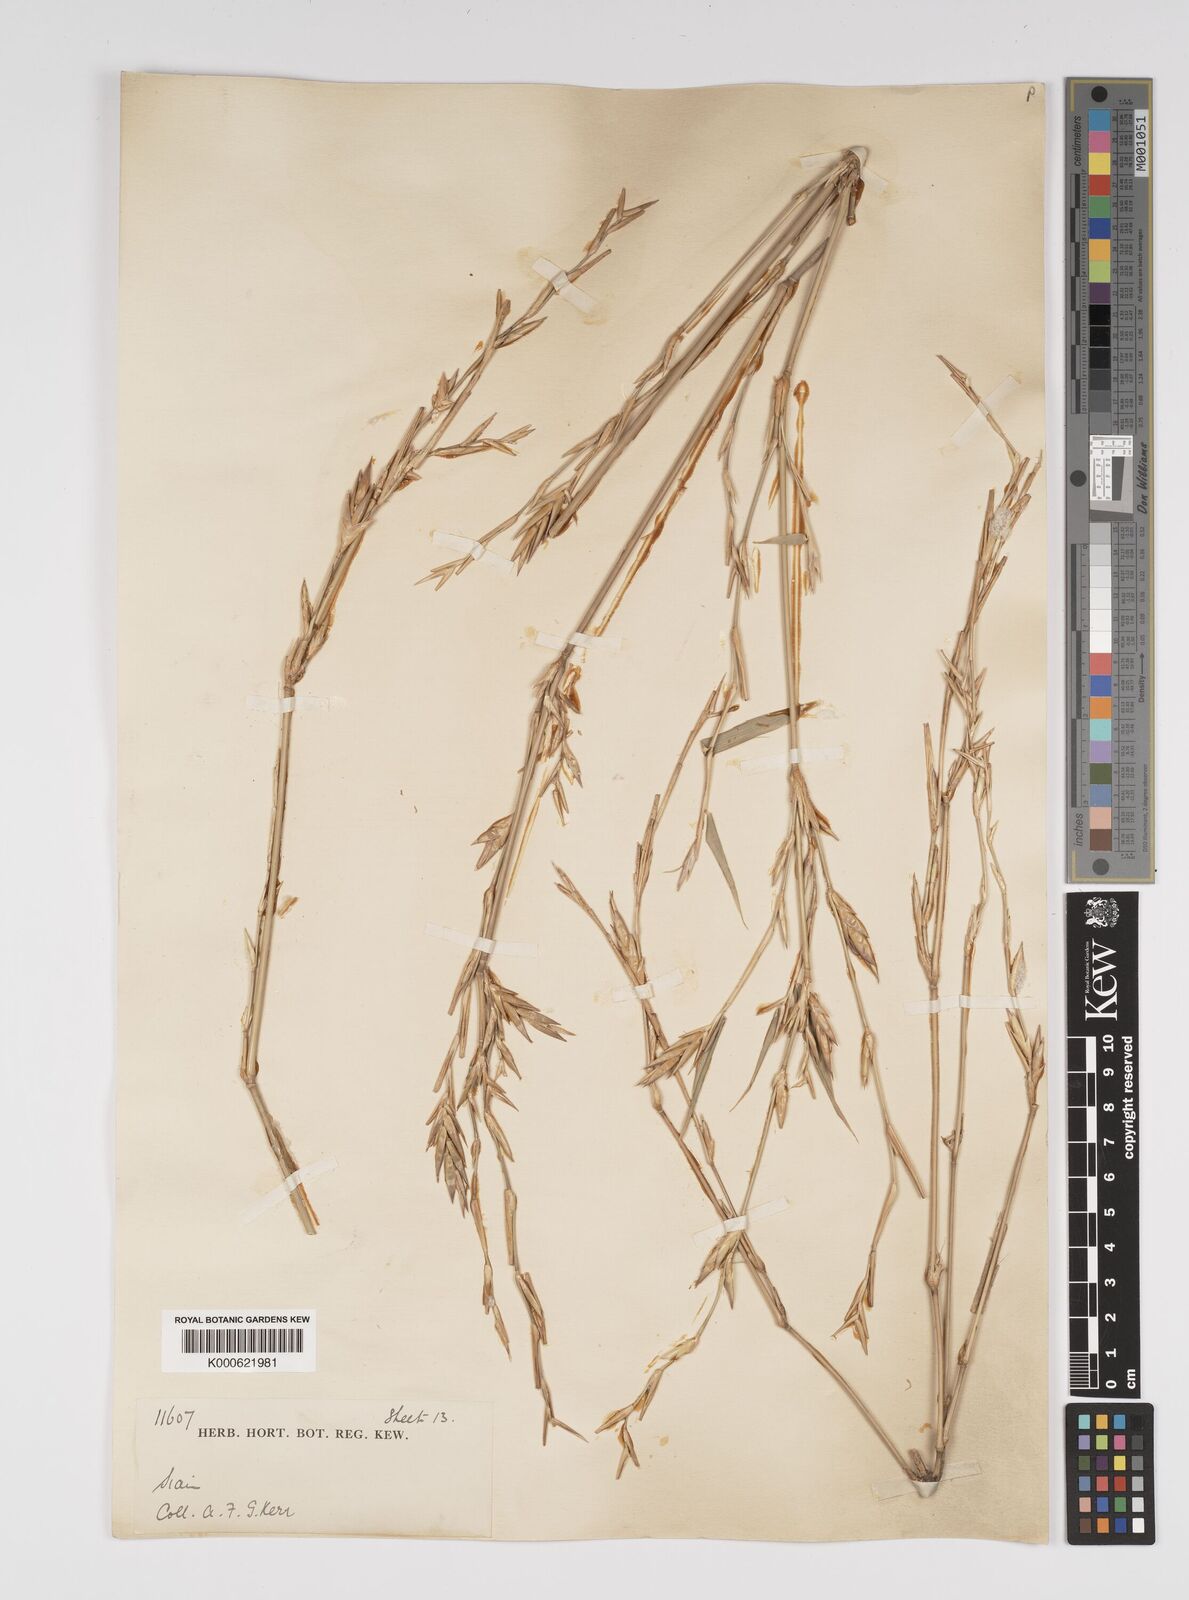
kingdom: Plantae
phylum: Tracheophyta
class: Liliopsida
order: Poales
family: Poaceae
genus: Bambusa
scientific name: Bambusa
